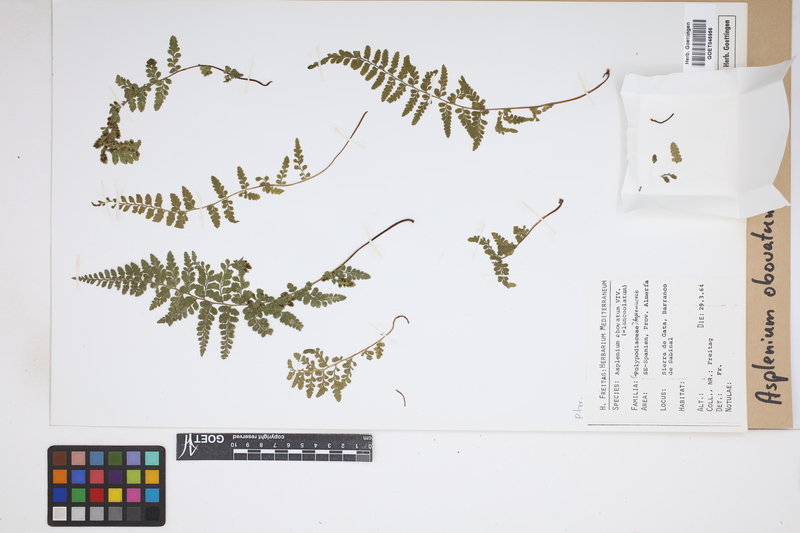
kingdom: Plantae
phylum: Tracheophyta
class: Polypodiopsida
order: Polypodiales
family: Aspleniaceae
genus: Asplenium
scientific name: Asplenium obovatum
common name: Lanceolate spleenwort
